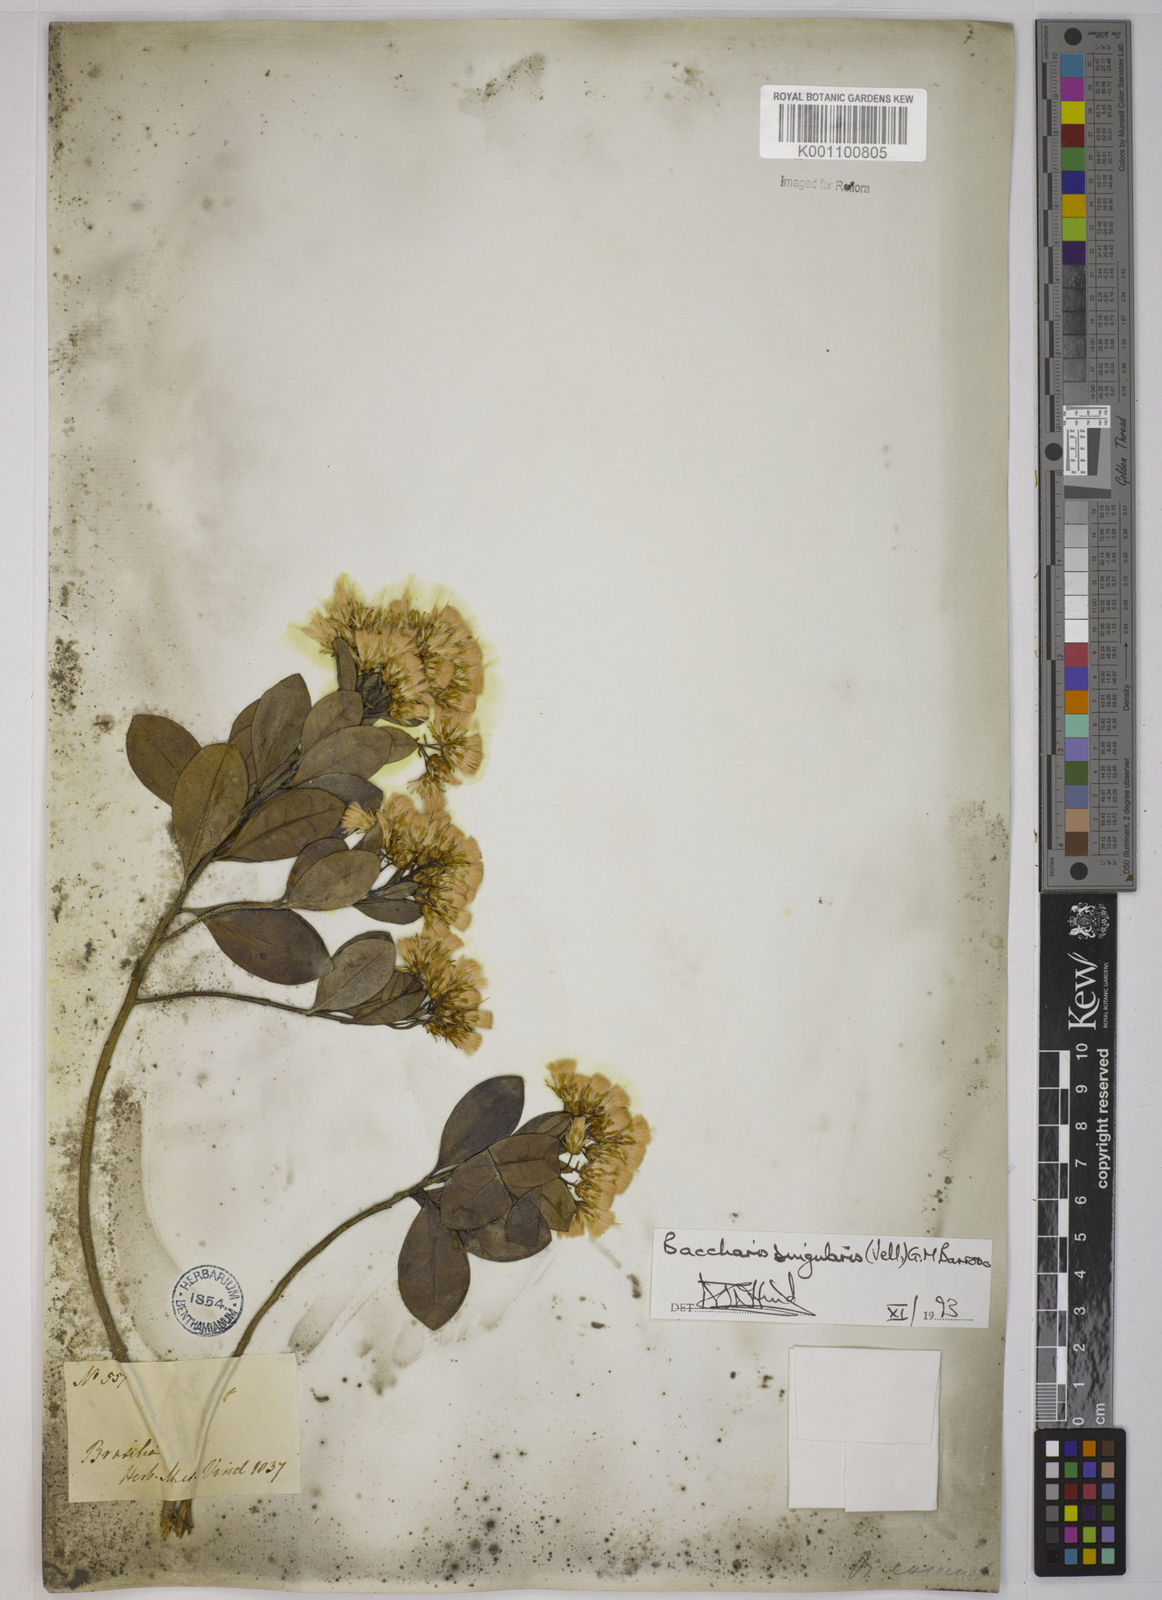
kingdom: Plantae
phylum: Tracheophyta
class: Magnoliopsida
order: Asterales
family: Asteraceae
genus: Baccharis
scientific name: Baccharis
